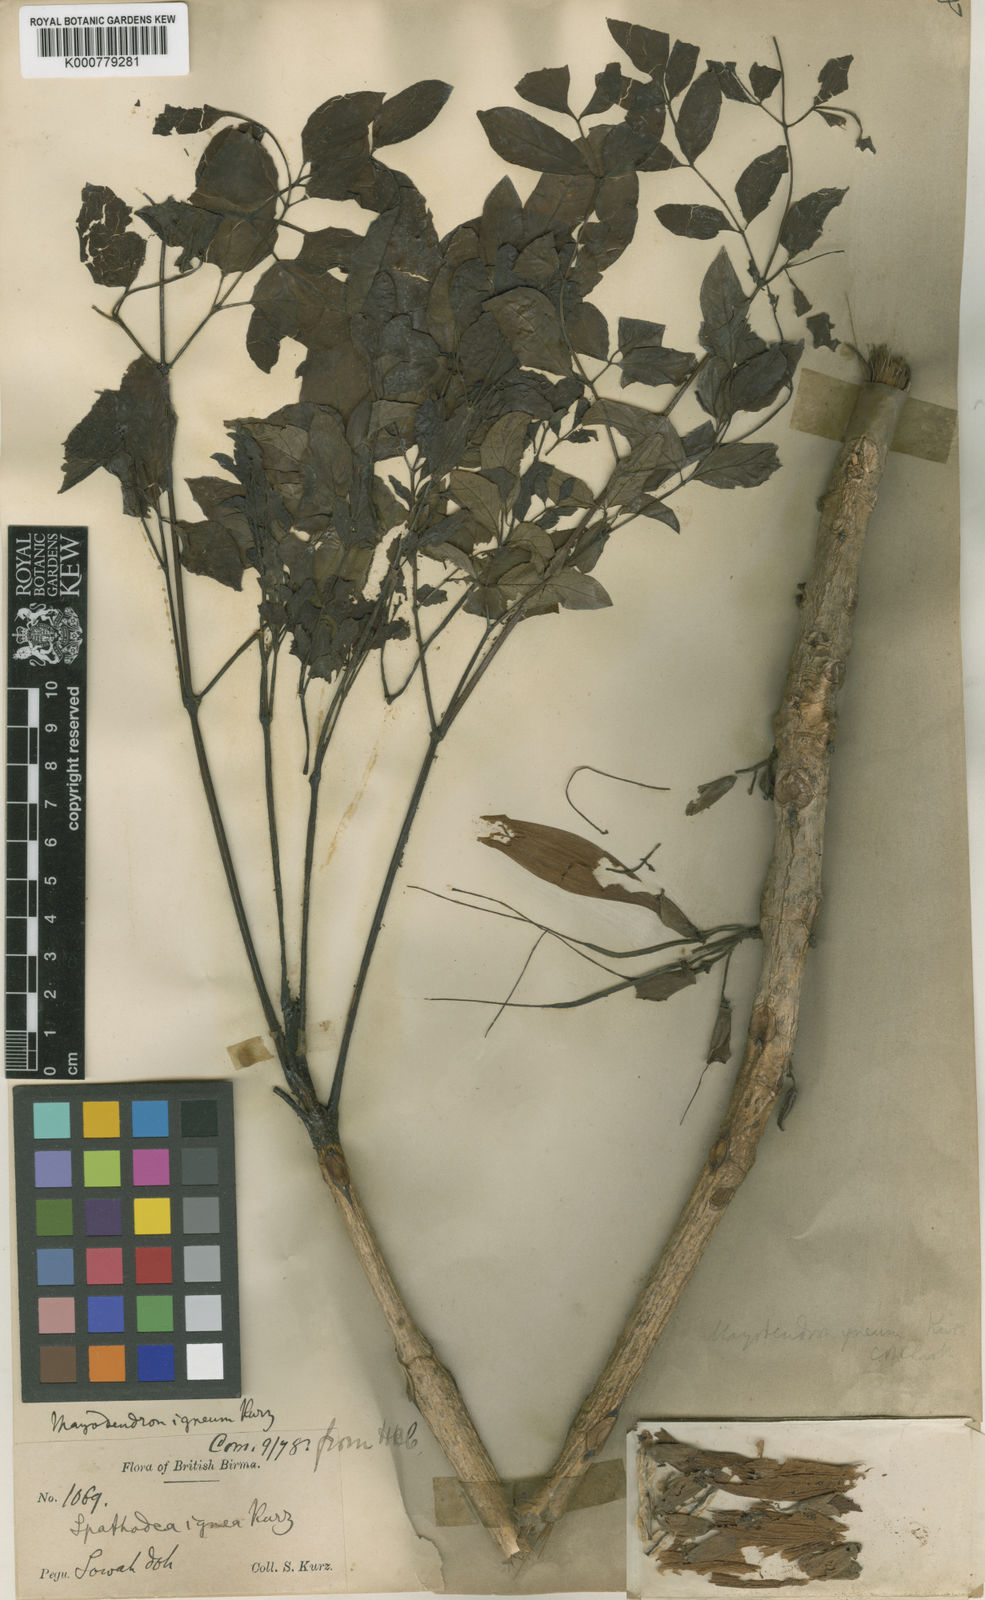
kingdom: Plantae
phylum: Tracheophyta
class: Magnoliopsida
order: Lamiales
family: Bignoniaceae
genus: Radermachera
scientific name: Radermachera ignea
